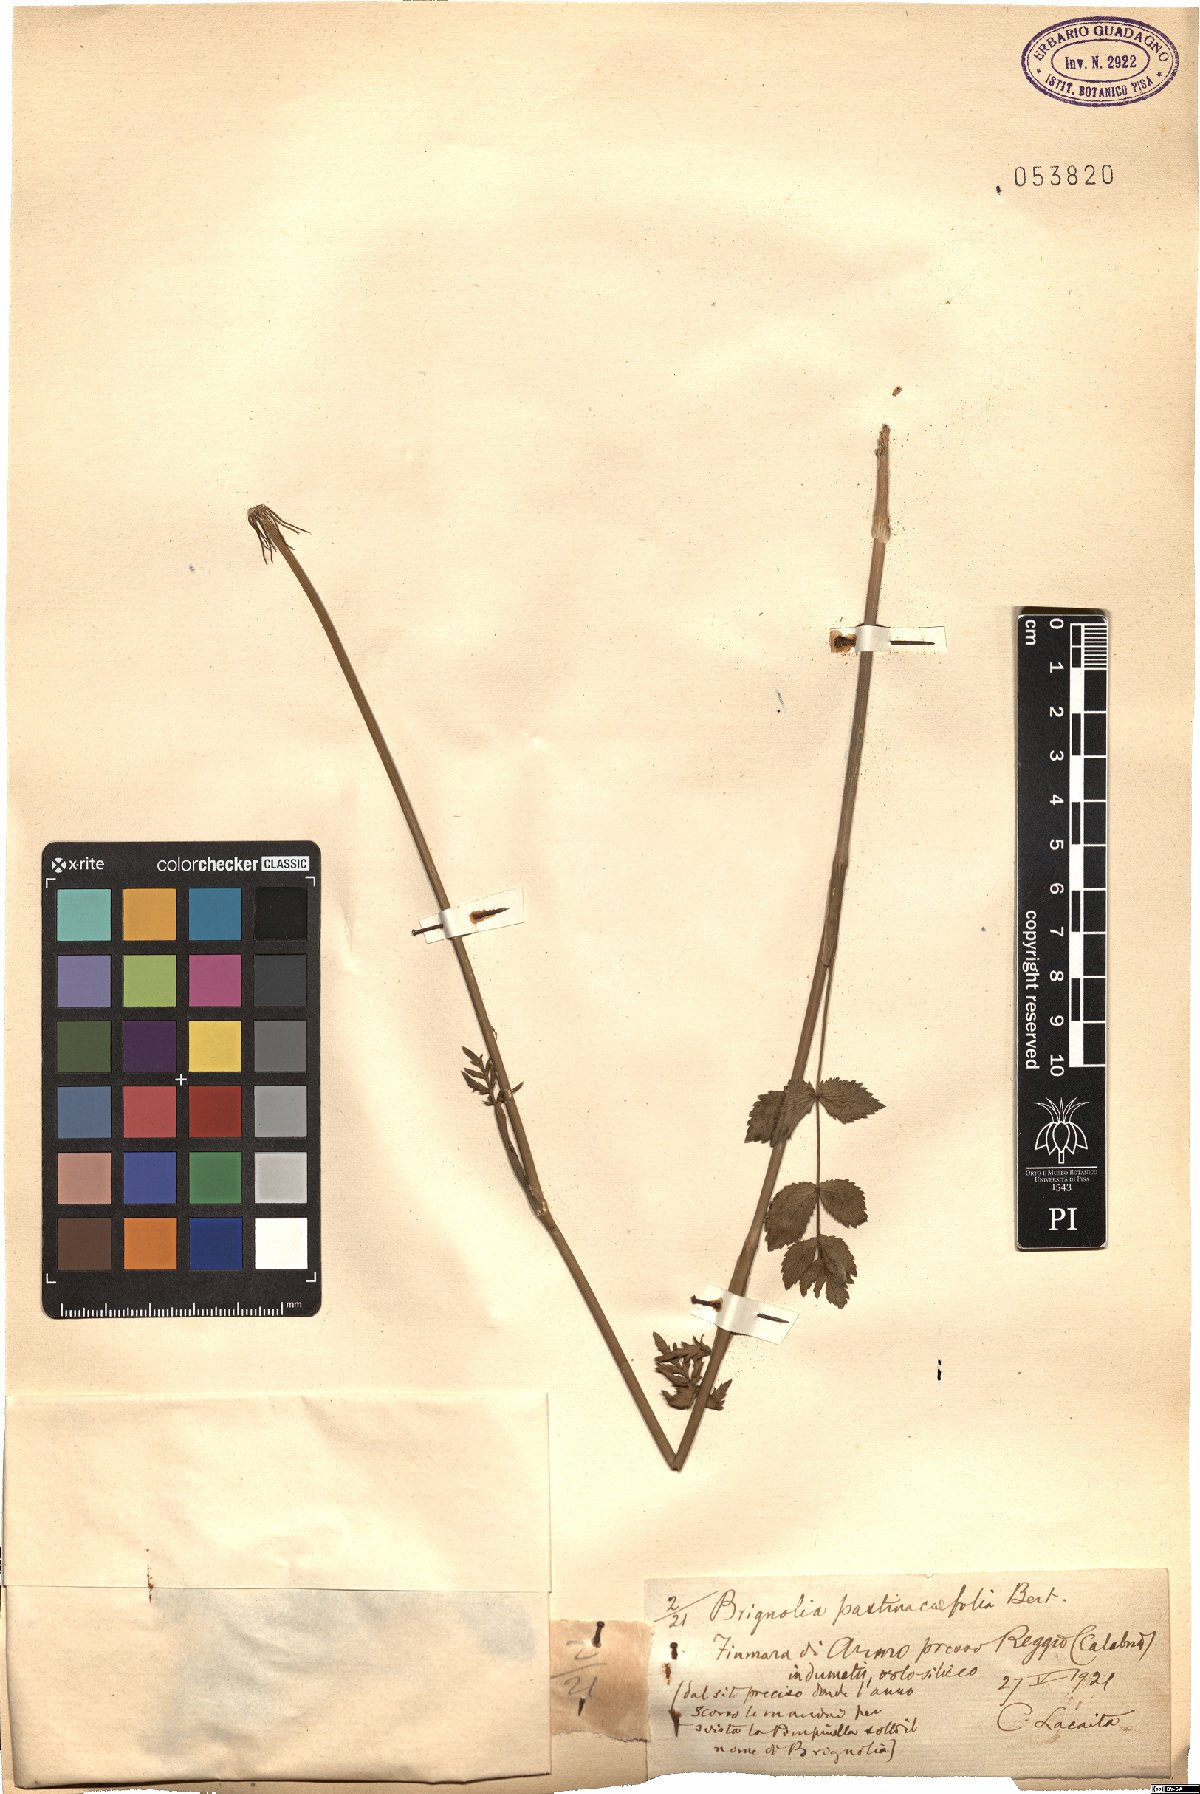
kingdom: Plantae
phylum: Tracheophyta
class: Magnoliopsida
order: Apiales
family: Apiaceae
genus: Kundmannia
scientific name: Kundmannia sicula
